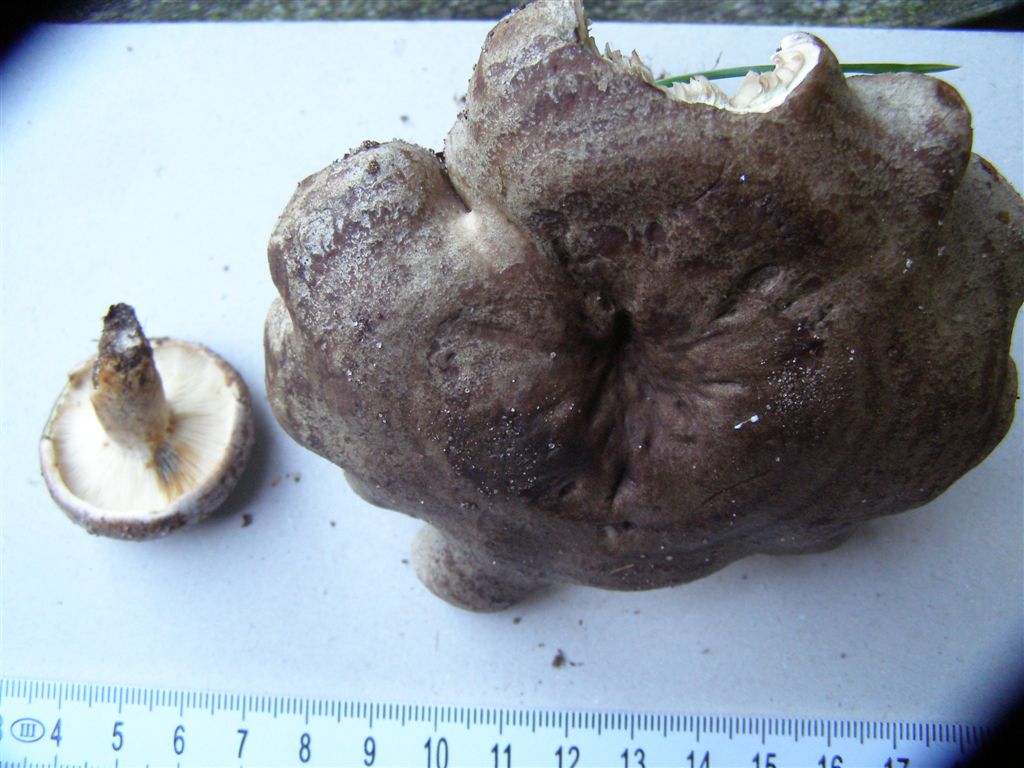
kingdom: Fungi
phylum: Basidiomycota
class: Agaricomycetes
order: Russulales
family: Russulaceae
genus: Lactarius
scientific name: Lactarius fluens
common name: lysrandet mælkehat
